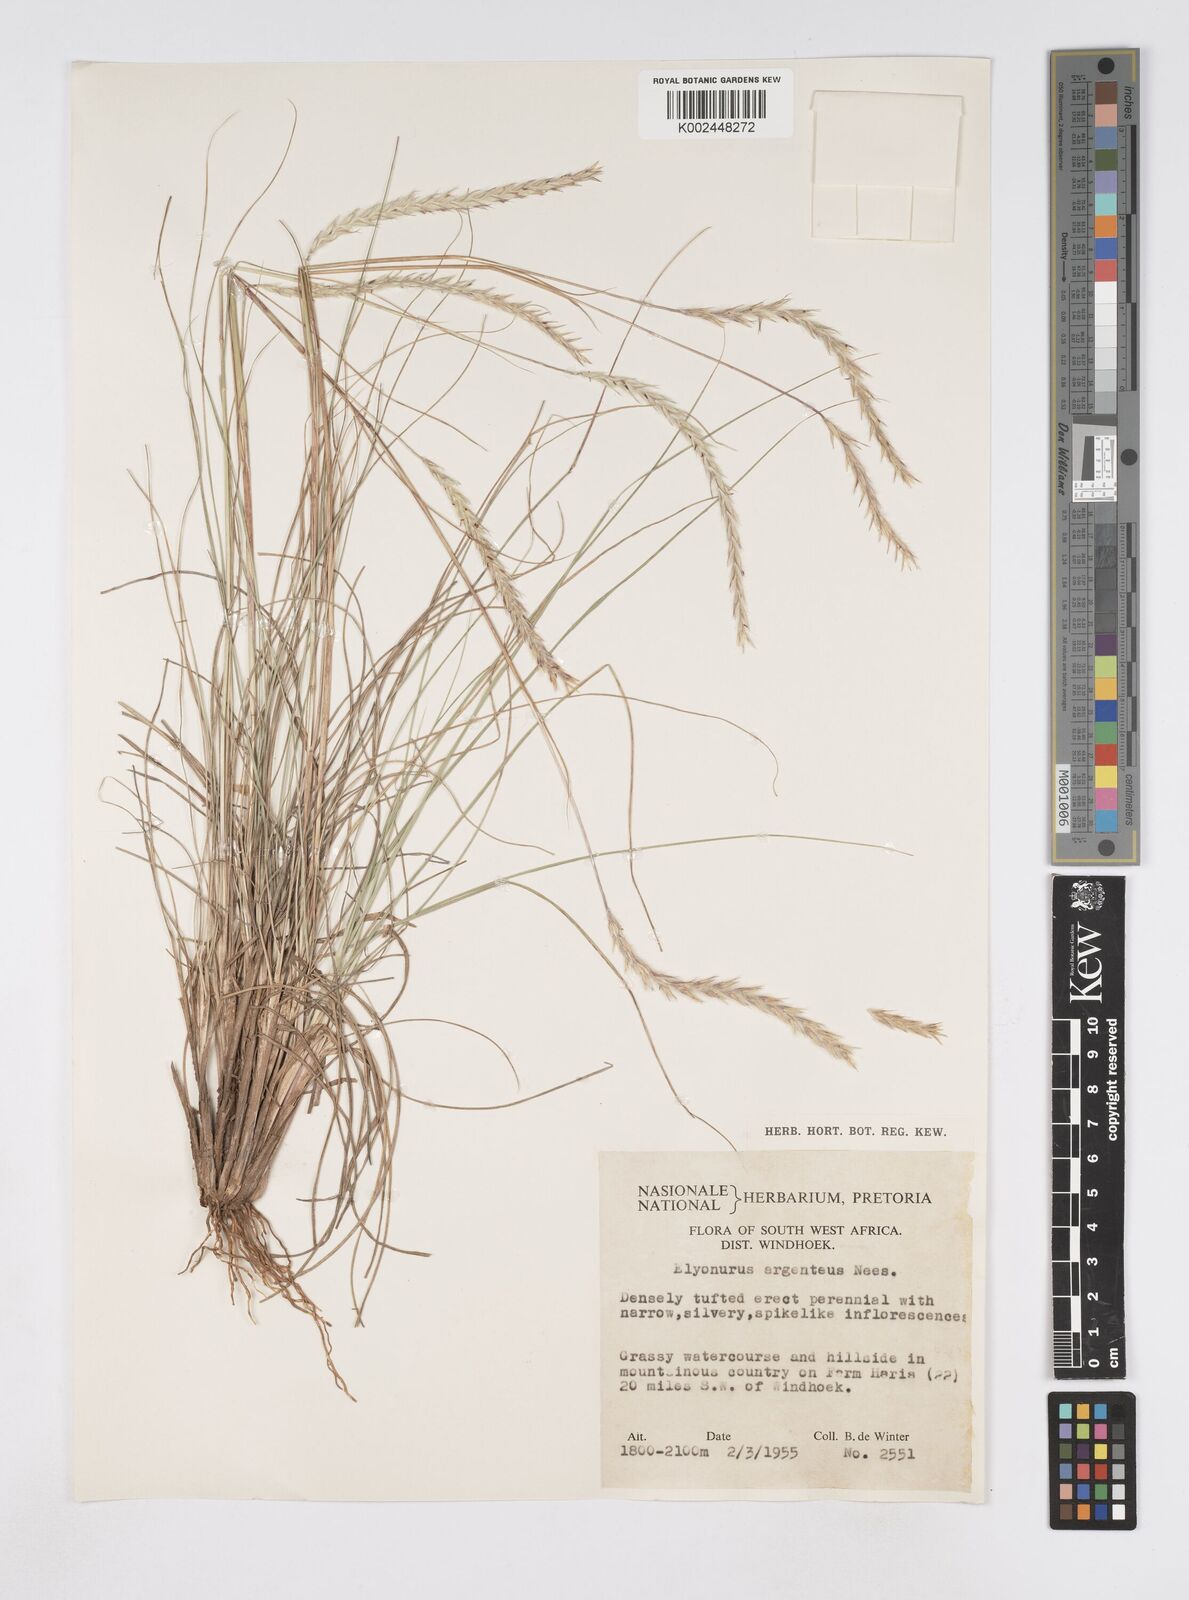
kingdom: Plantae
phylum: Tracheophyta
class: Liliopsida
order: Poales
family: Poaceae
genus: Elionurus
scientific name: Elionurus muticus
